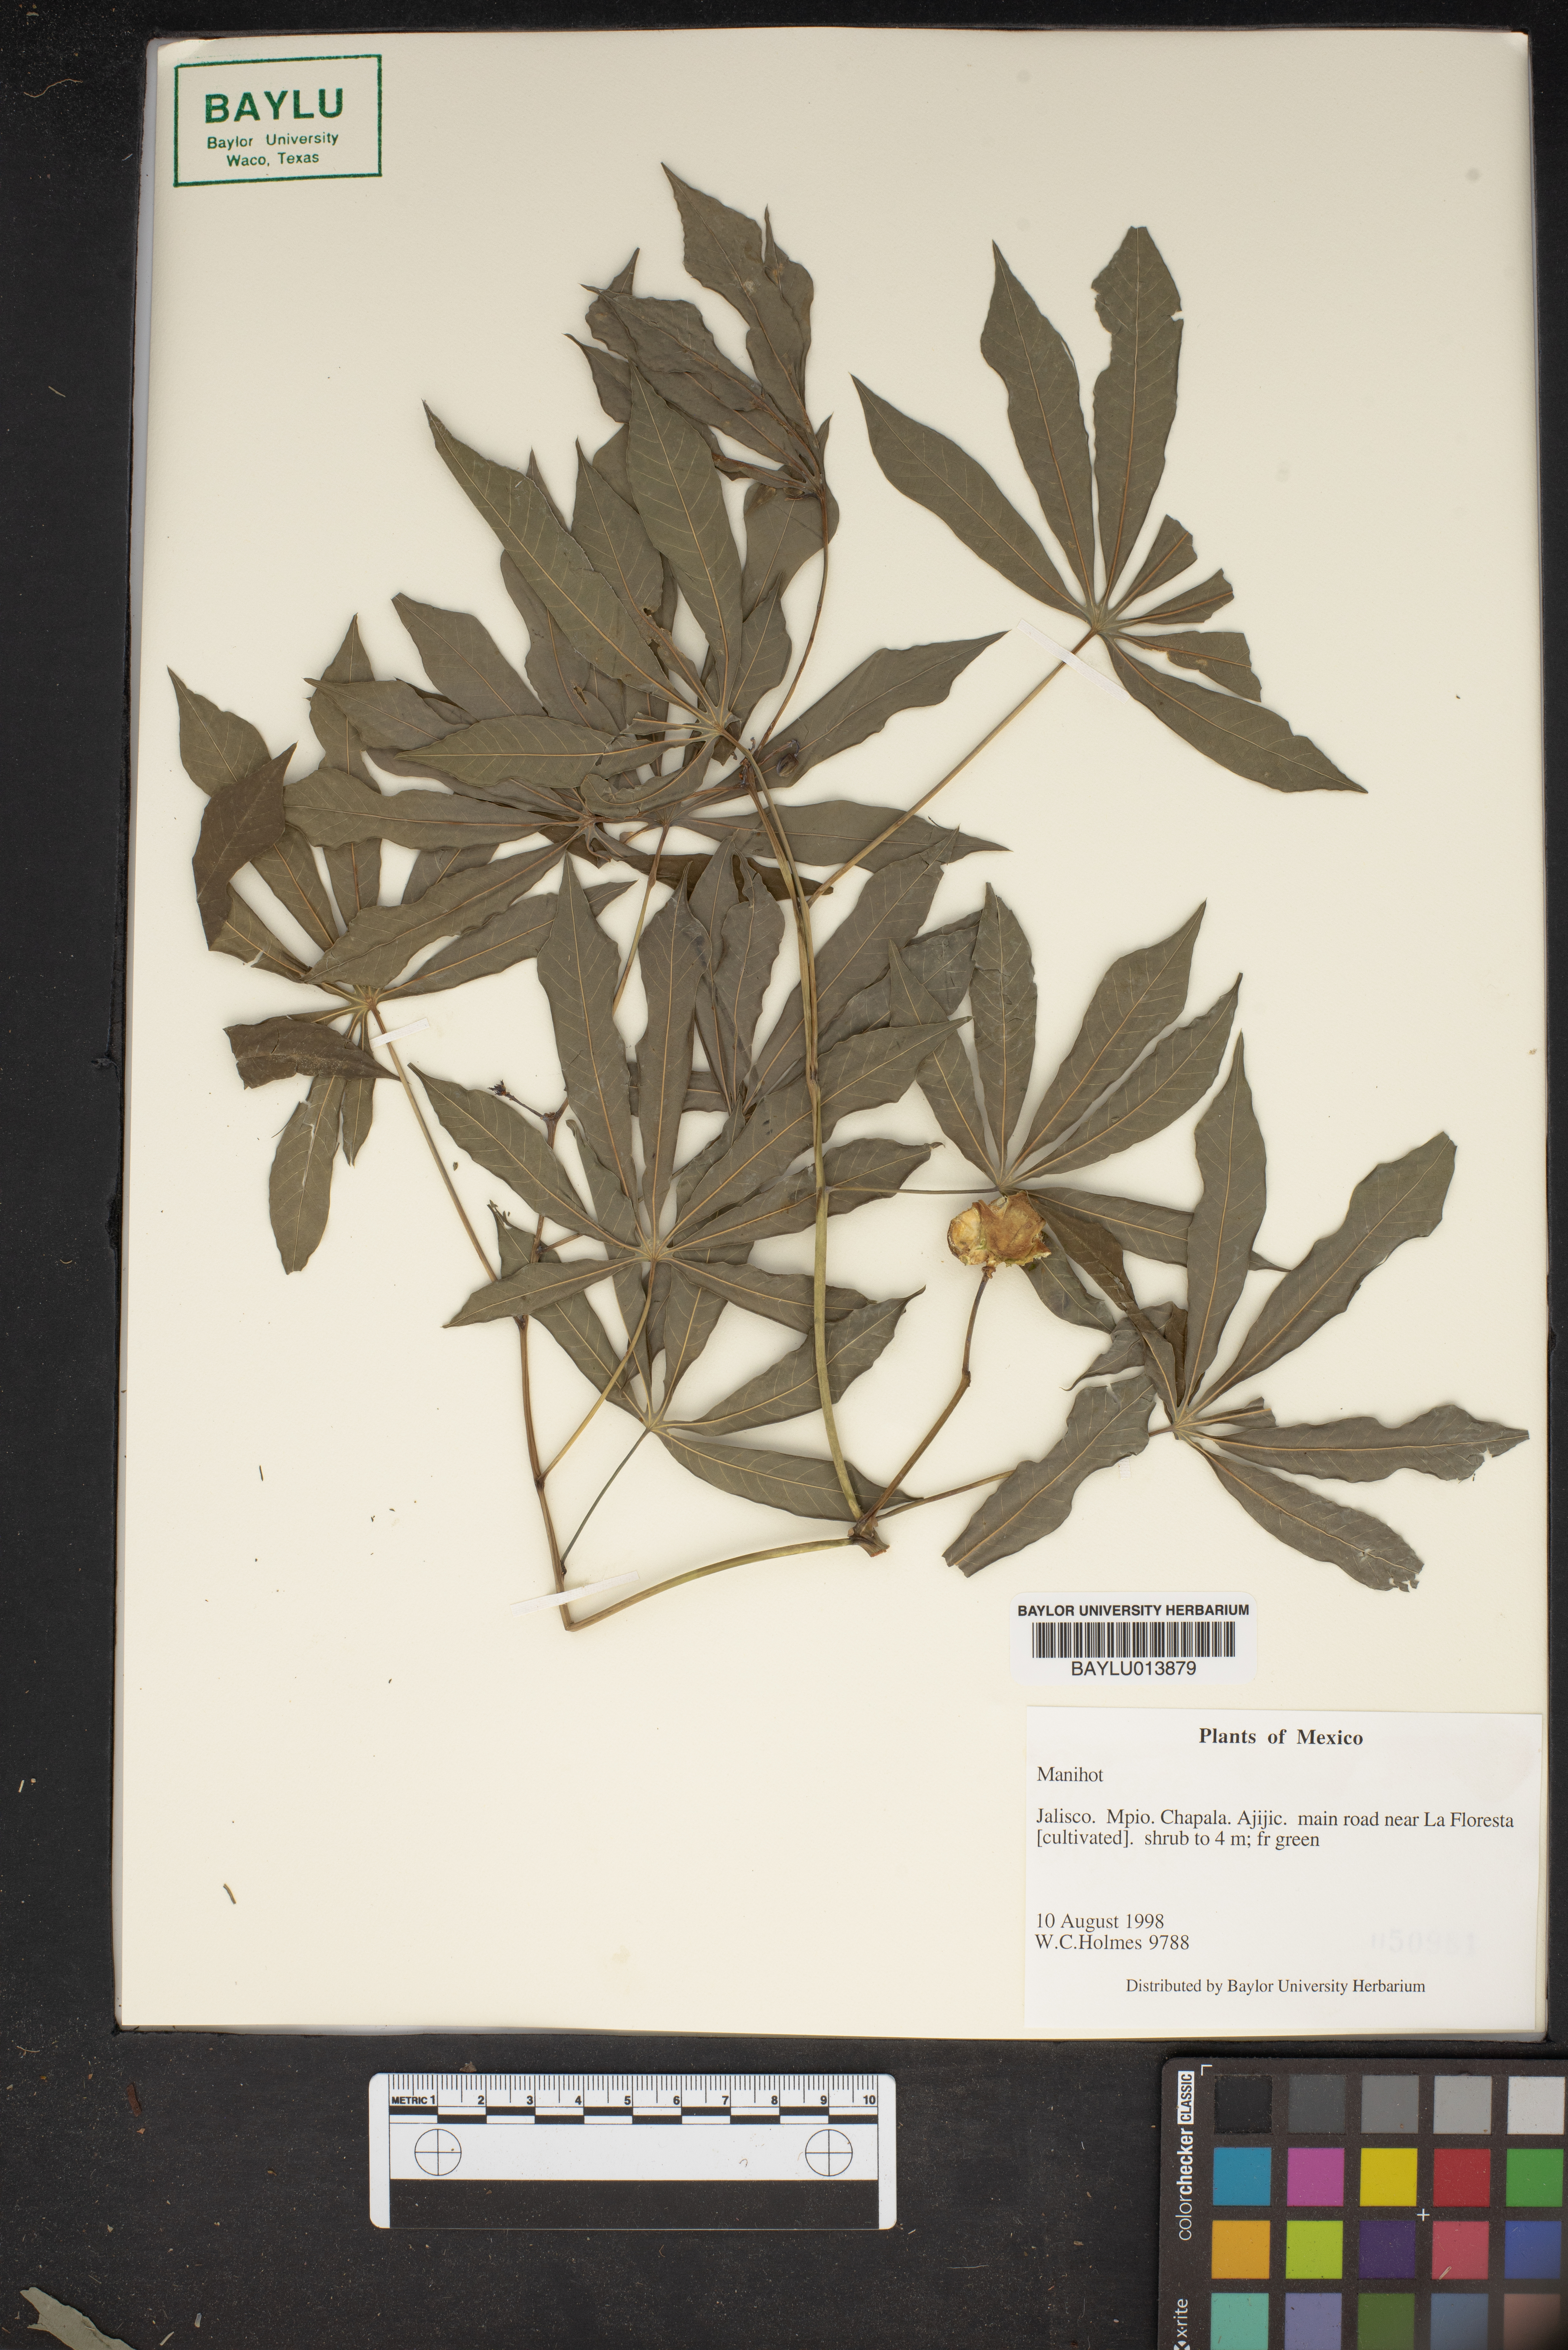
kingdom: Plantae
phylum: Tracheophyta
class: Magnoliopsida
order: Malpighiales
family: Euphorbiaceae
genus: Manihot
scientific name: Manihot
